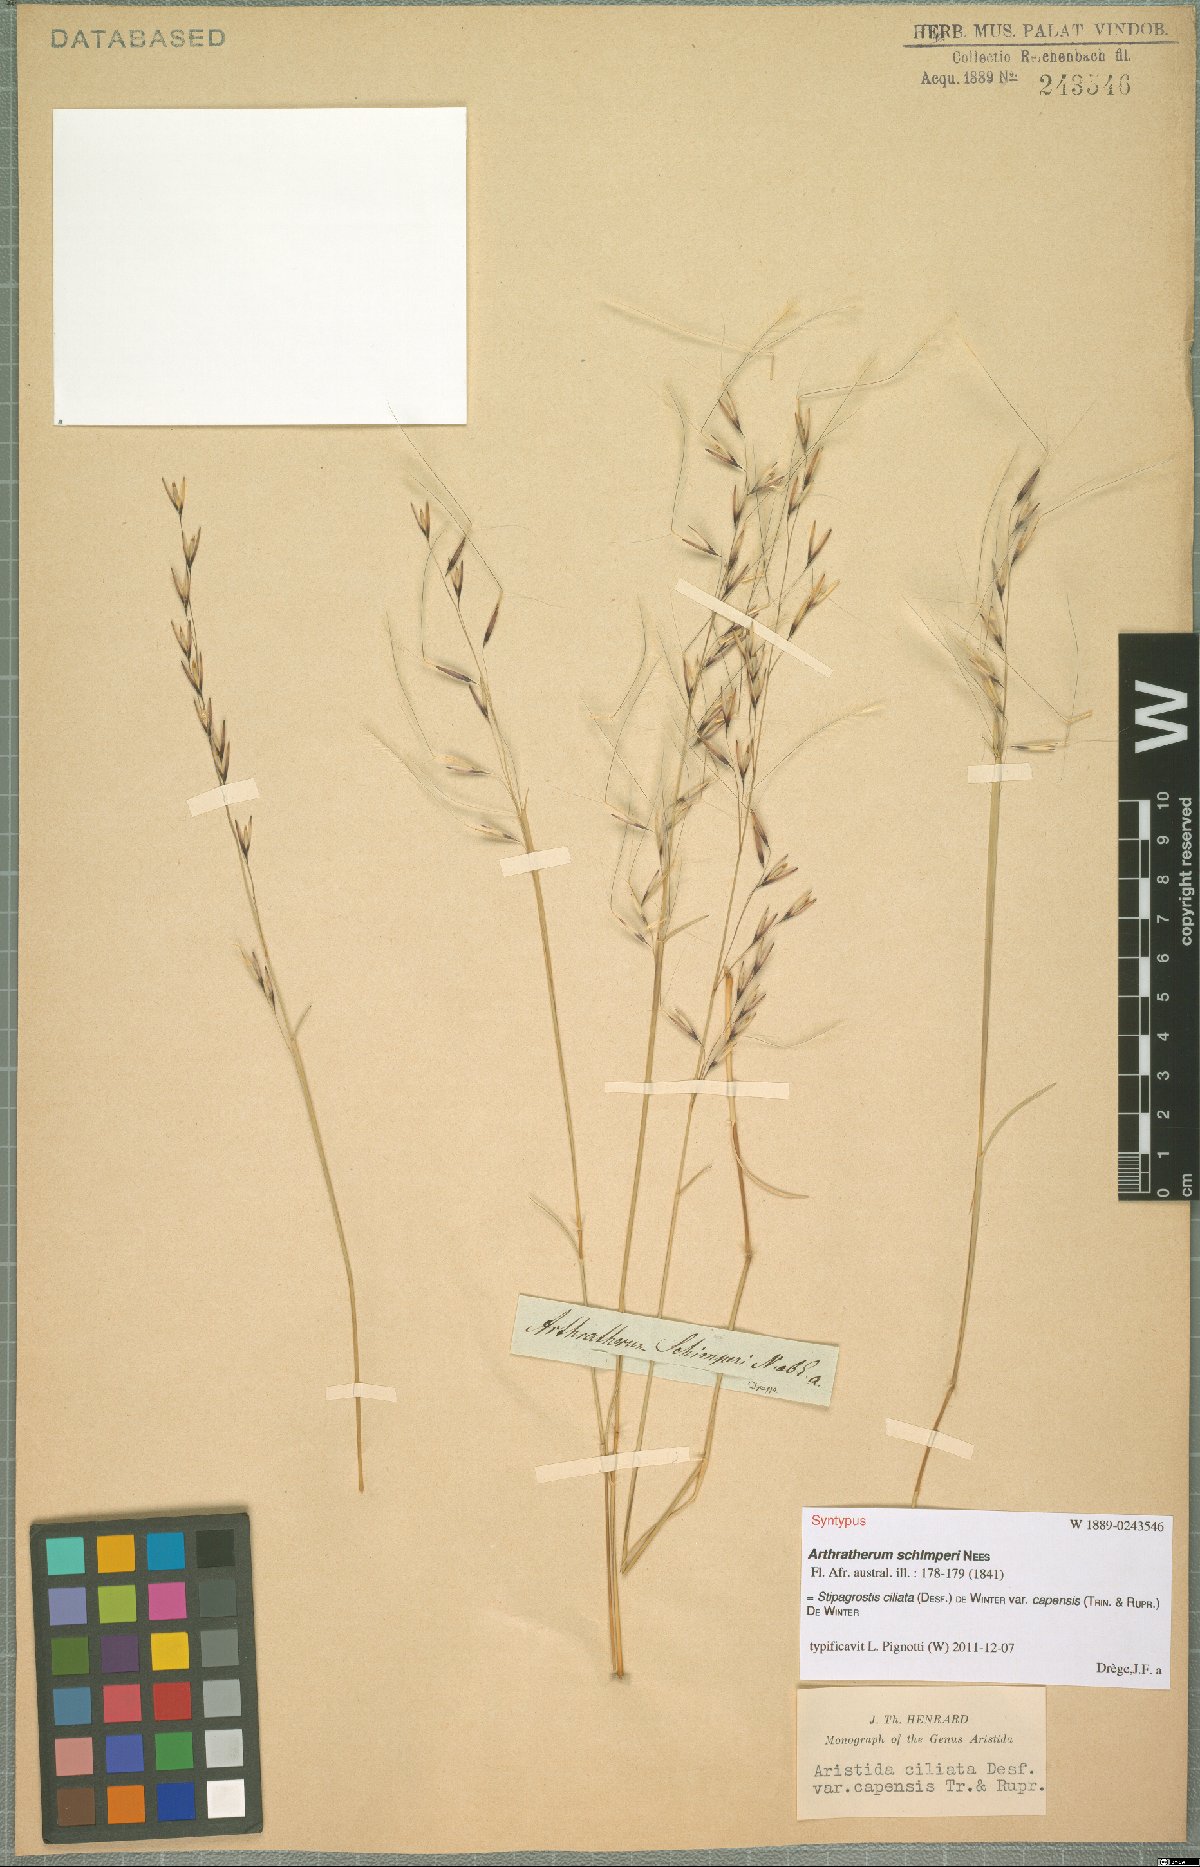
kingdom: Plantae
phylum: Tracheophyta
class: Liliopsida
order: Poales
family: Poaceae
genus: Stipagrostis
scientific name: Stipagrostis ciliata
